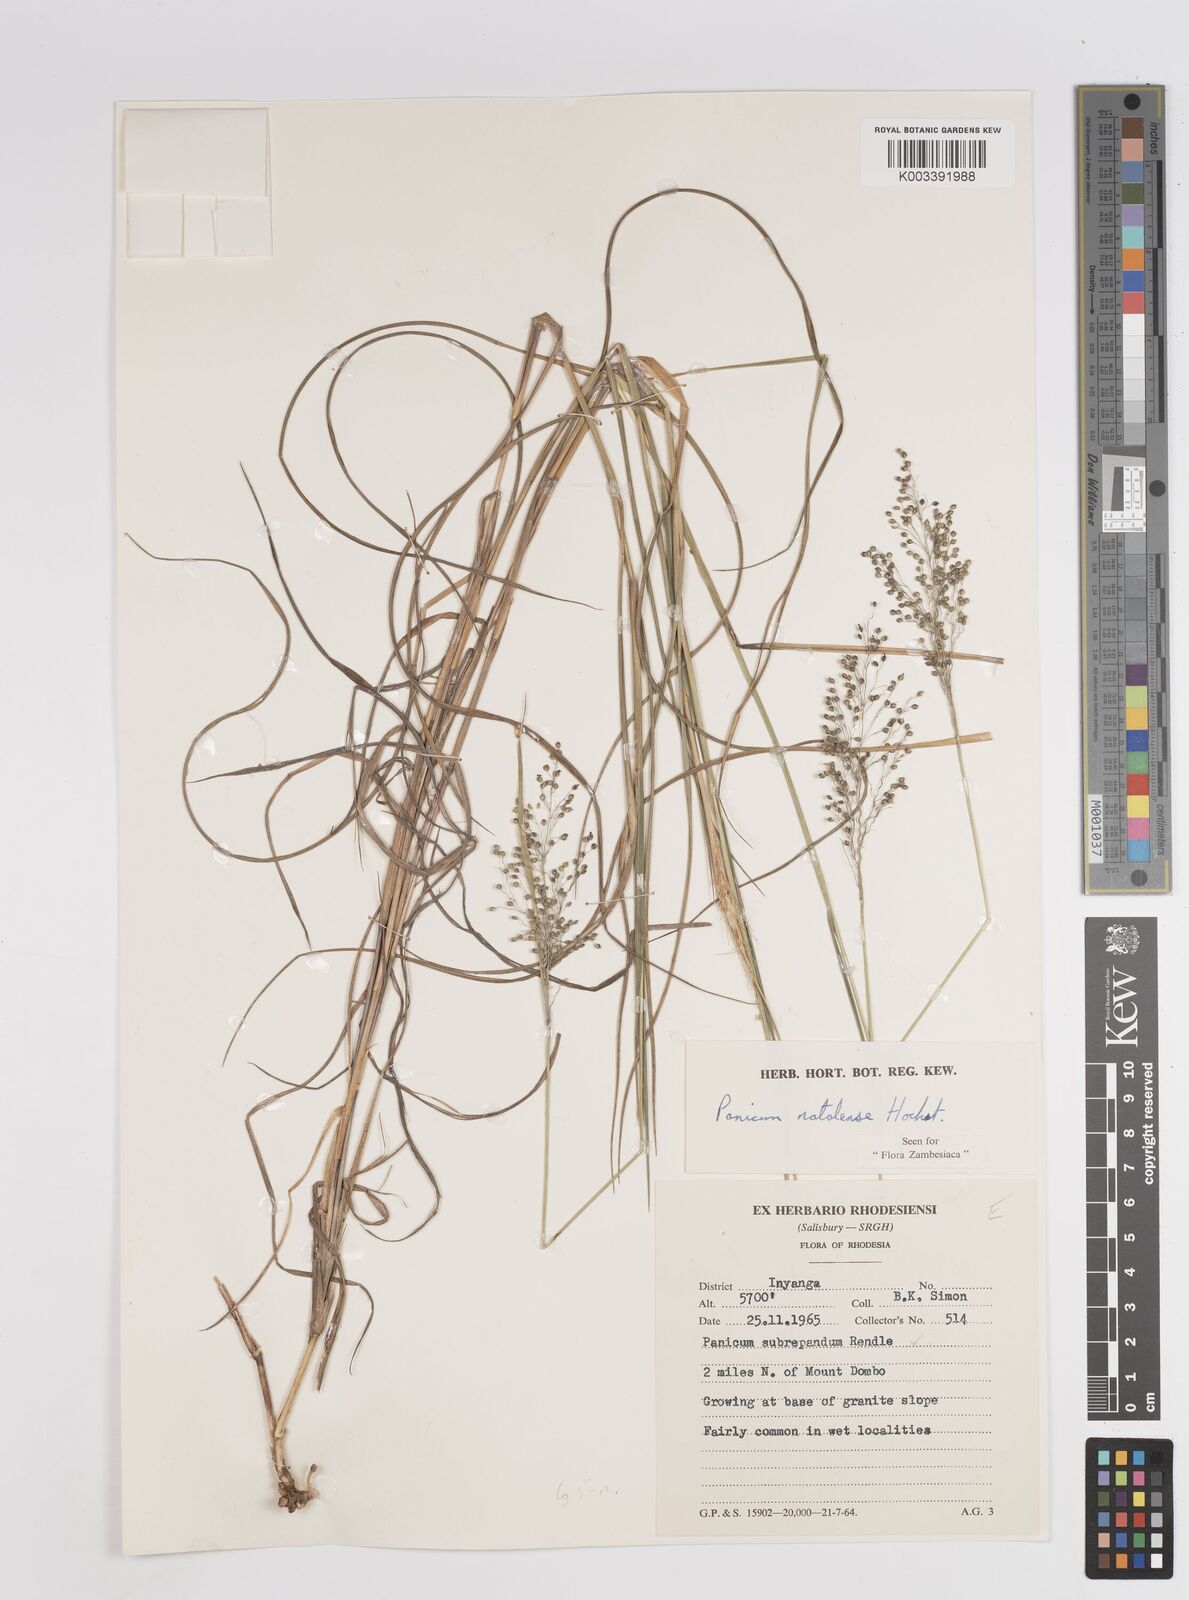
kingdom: Plantae
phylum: Tracheophyta
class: Liliopsida
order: Poales
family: Poaceae
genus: Trichanthecium
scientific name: Trichanthecium natalense
